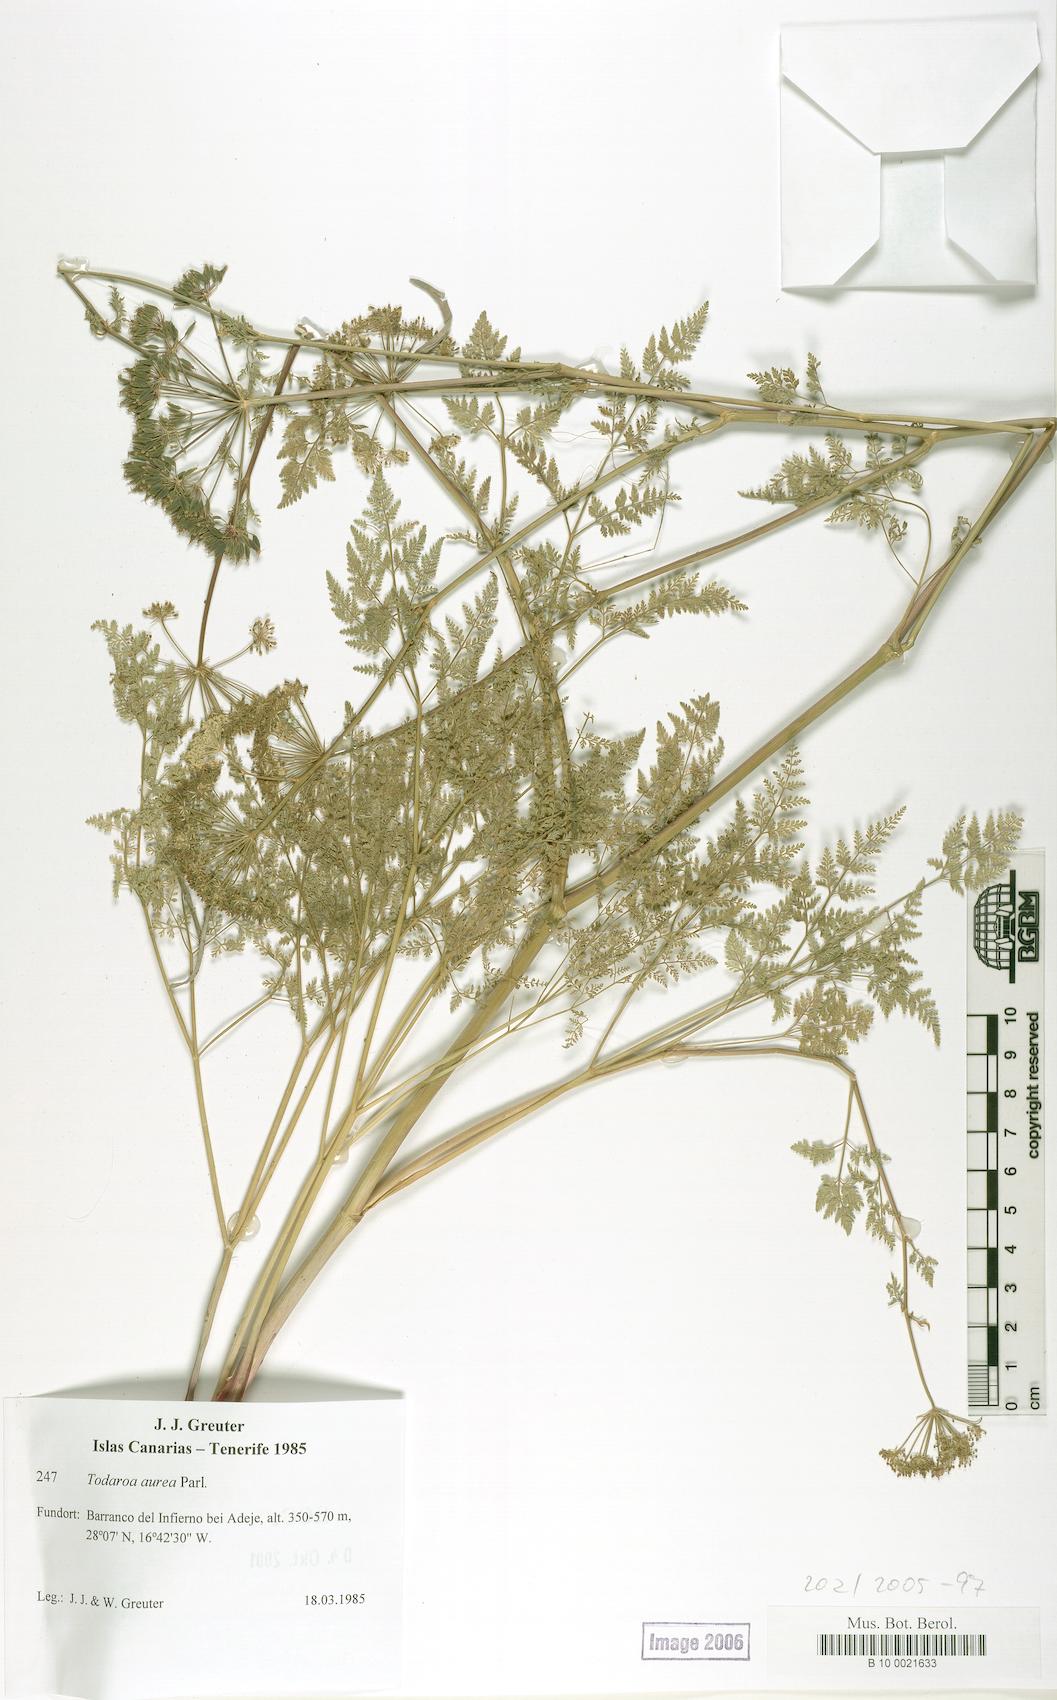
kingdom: Plantae
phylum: Tracheophyta
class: Magnoliopsida
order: Apiales
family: Apiaceae
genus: Todaroa
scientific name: Todaroa aurea
